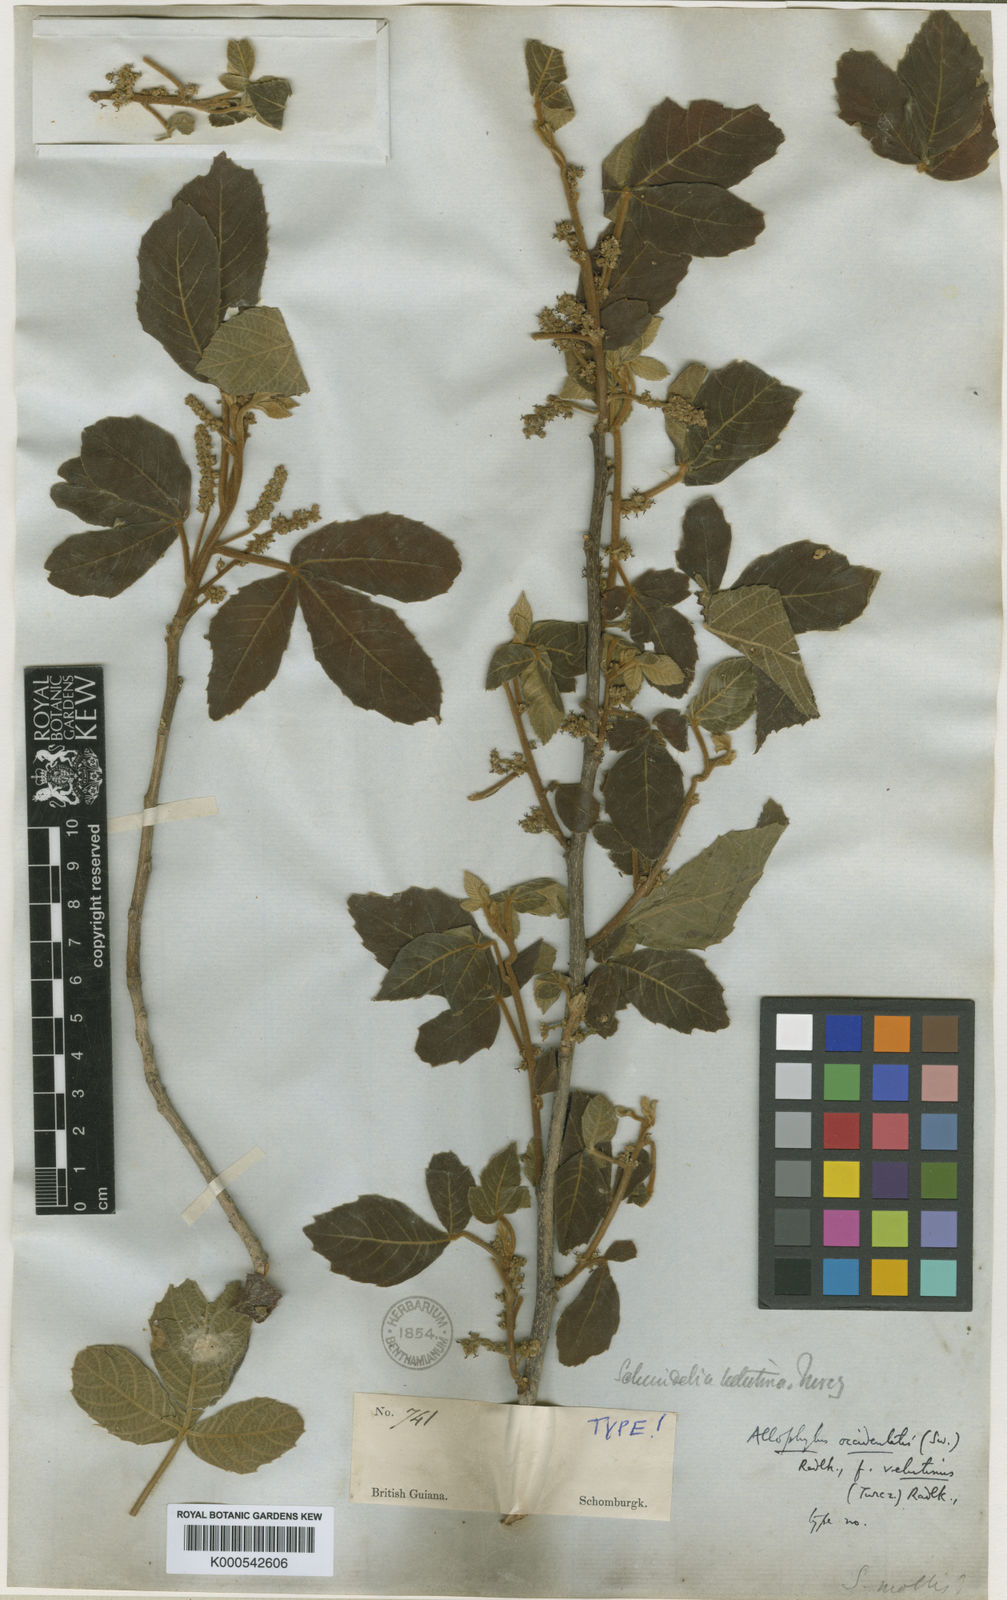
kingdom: Plantae
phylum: Tracheophyta
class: Magnoliopsida
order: Sapindales
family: Sapindaceae
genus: Allophylus
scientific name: Allophylus racemosus
